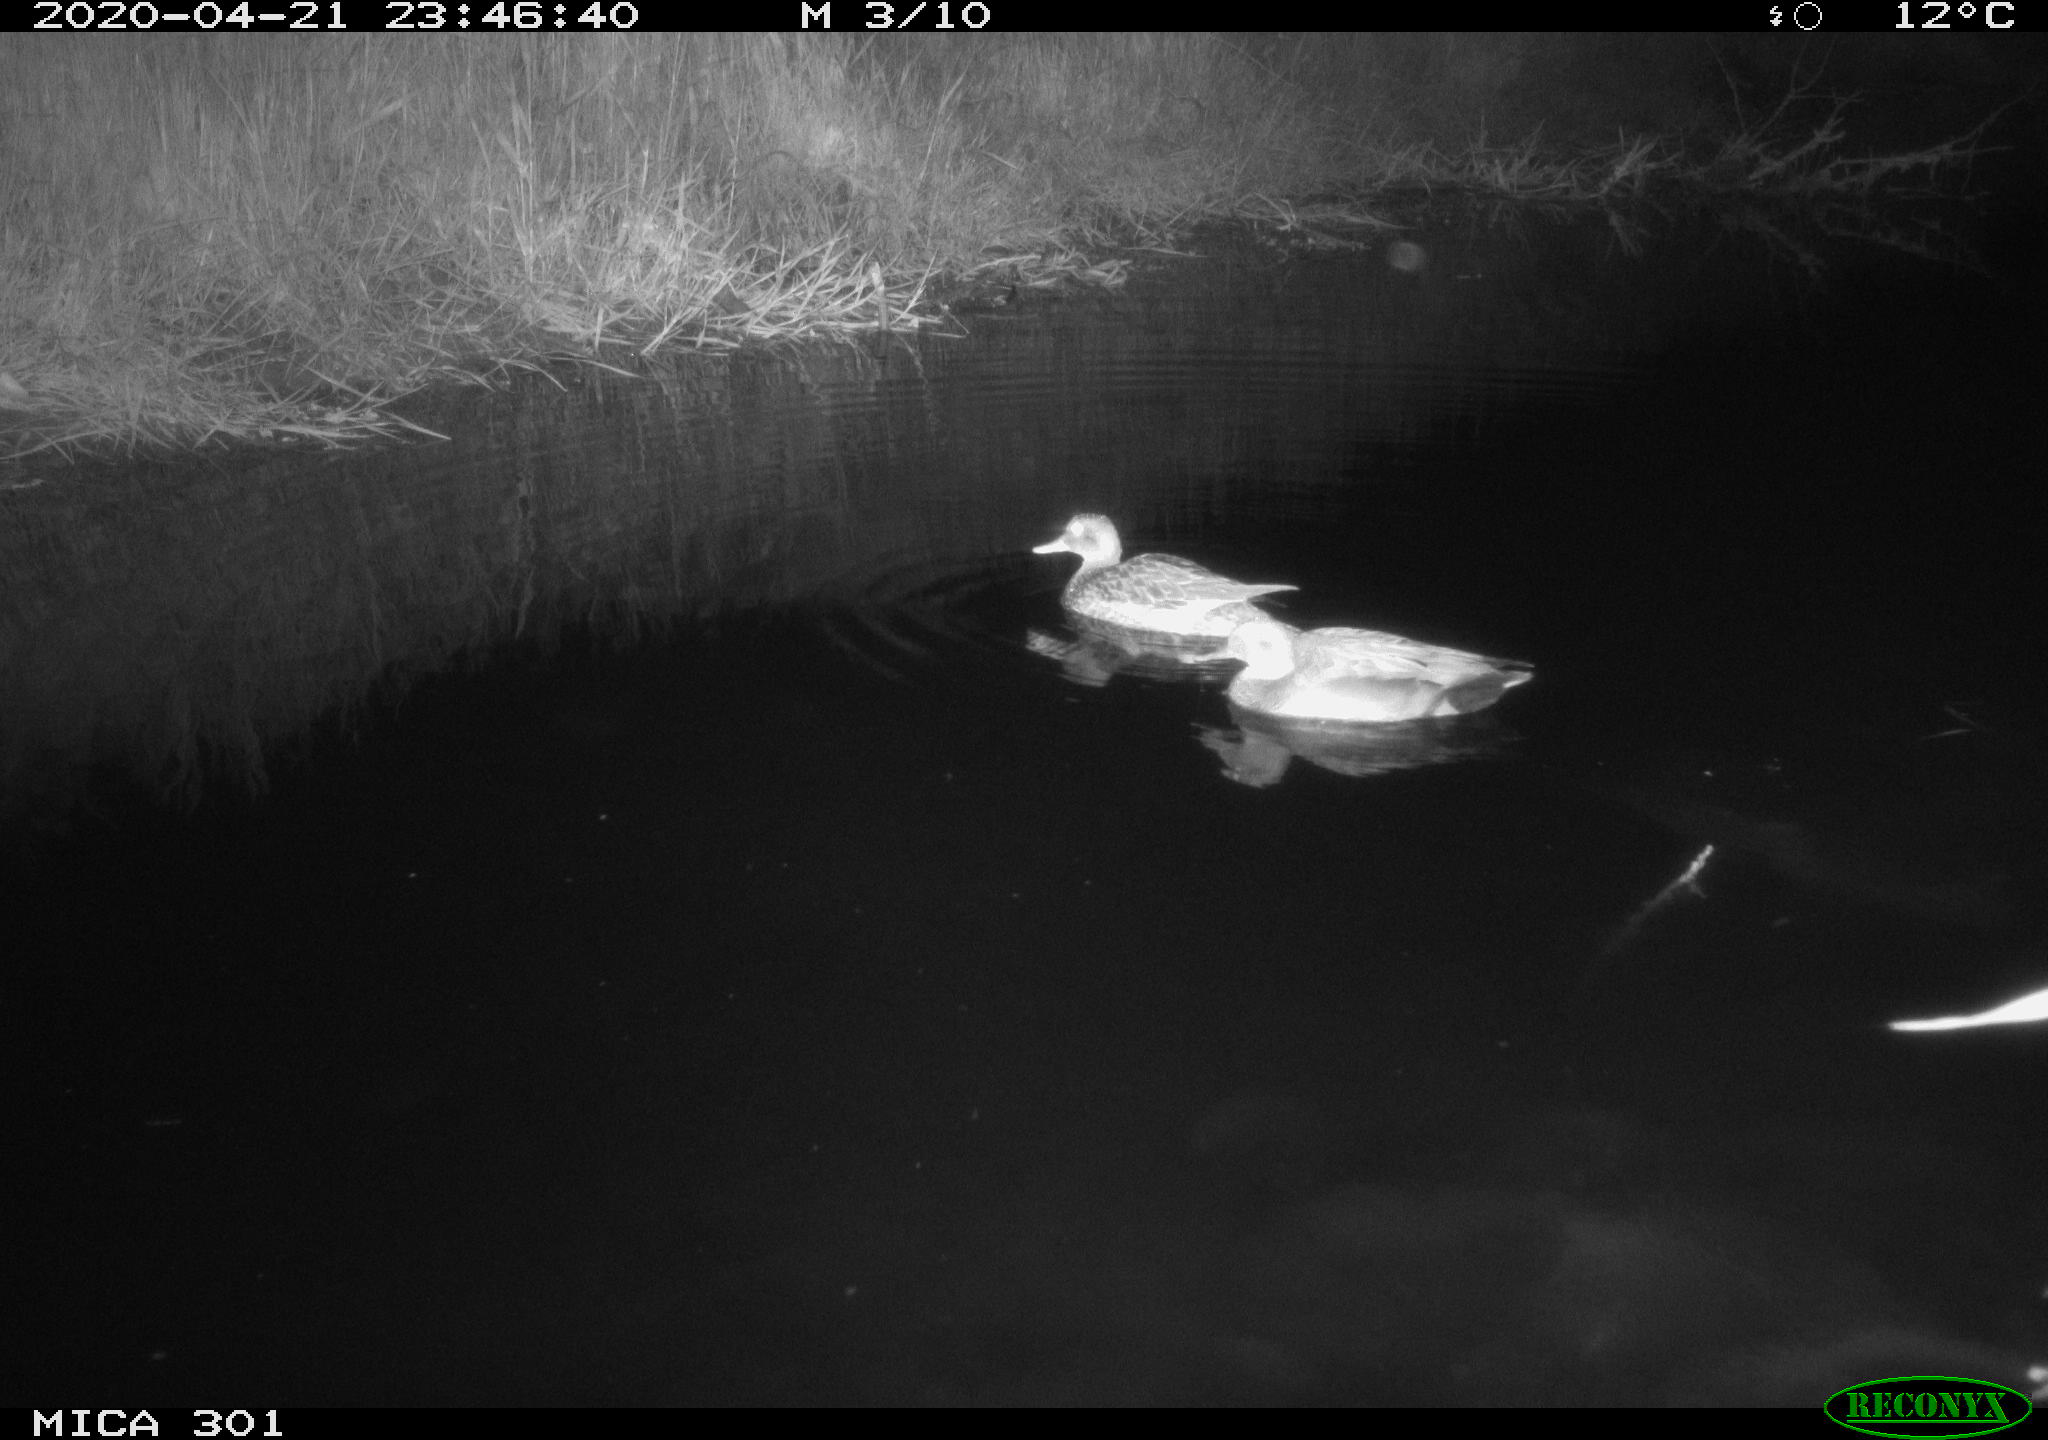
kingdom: Animalia
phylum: Chordata
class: Aves
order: Anseriformes
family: Anatidae
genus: Mareca
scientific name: Mareca strepera
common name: Gadwall
